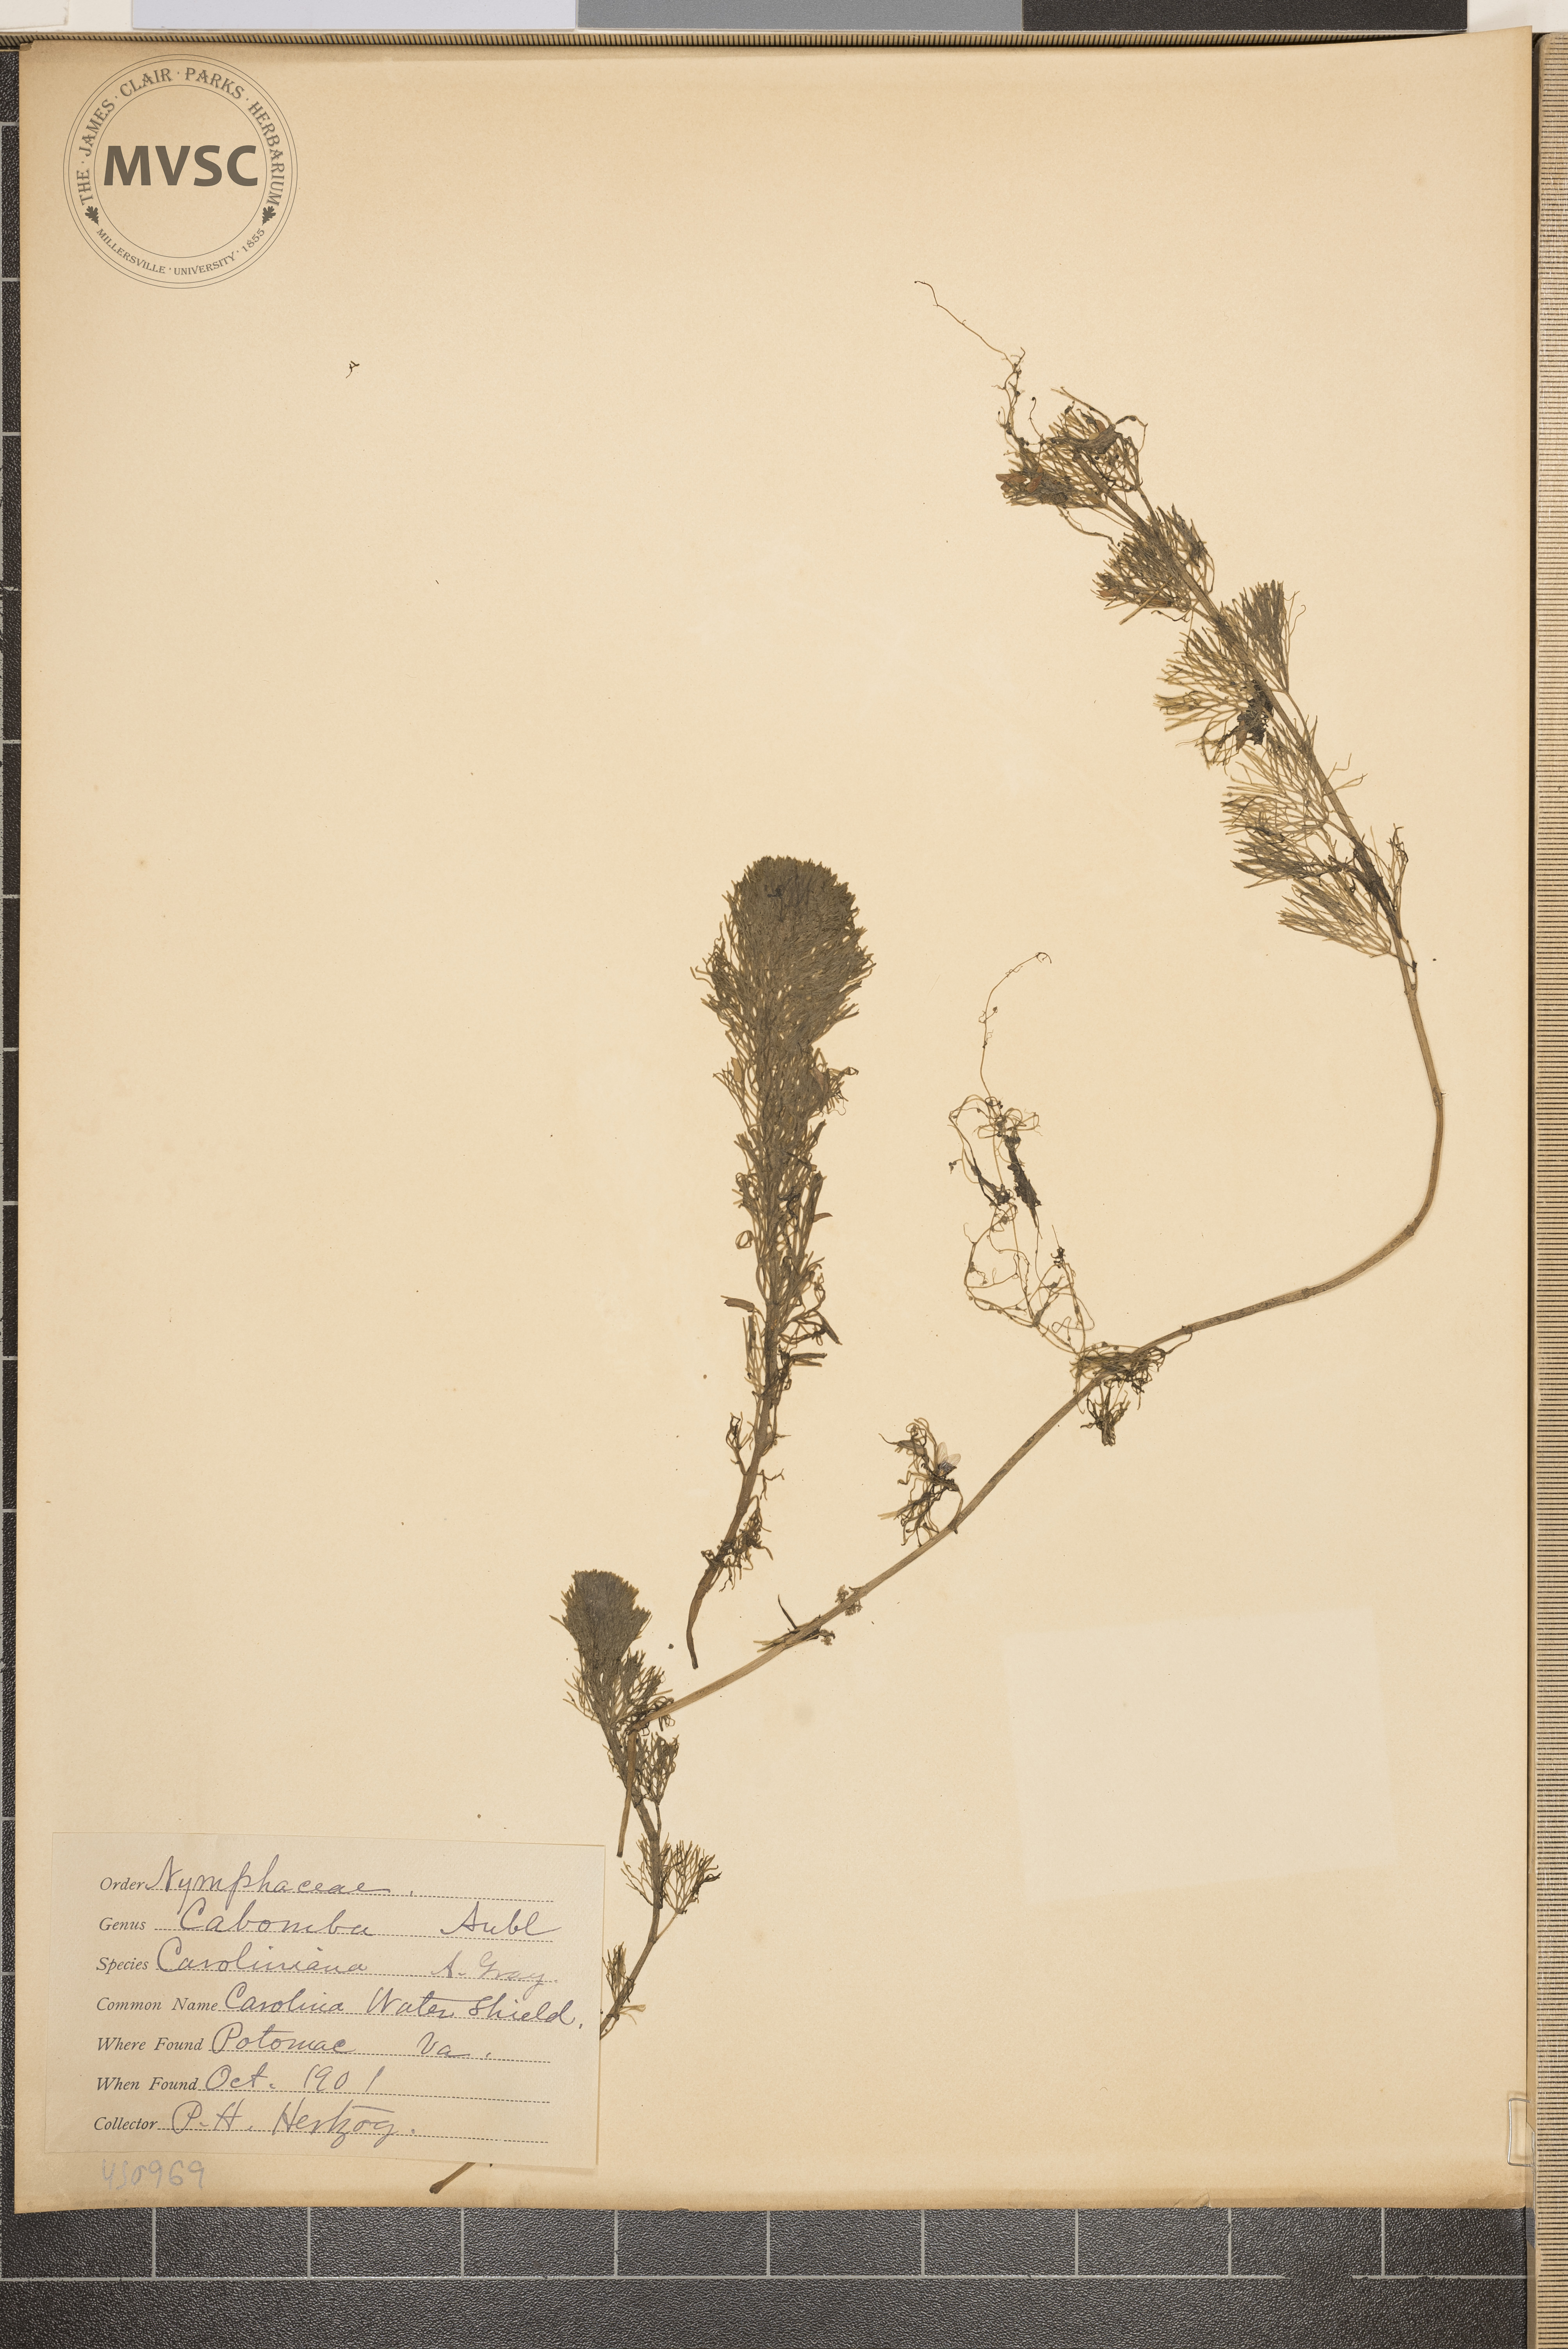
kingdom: Plantae
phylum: Tracheophyta
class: Magnoliopsida
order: Nymphaeales
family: Cabombaceae
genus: Cabomba
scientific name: Cabomba caroliniana
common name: Carolina water shield
